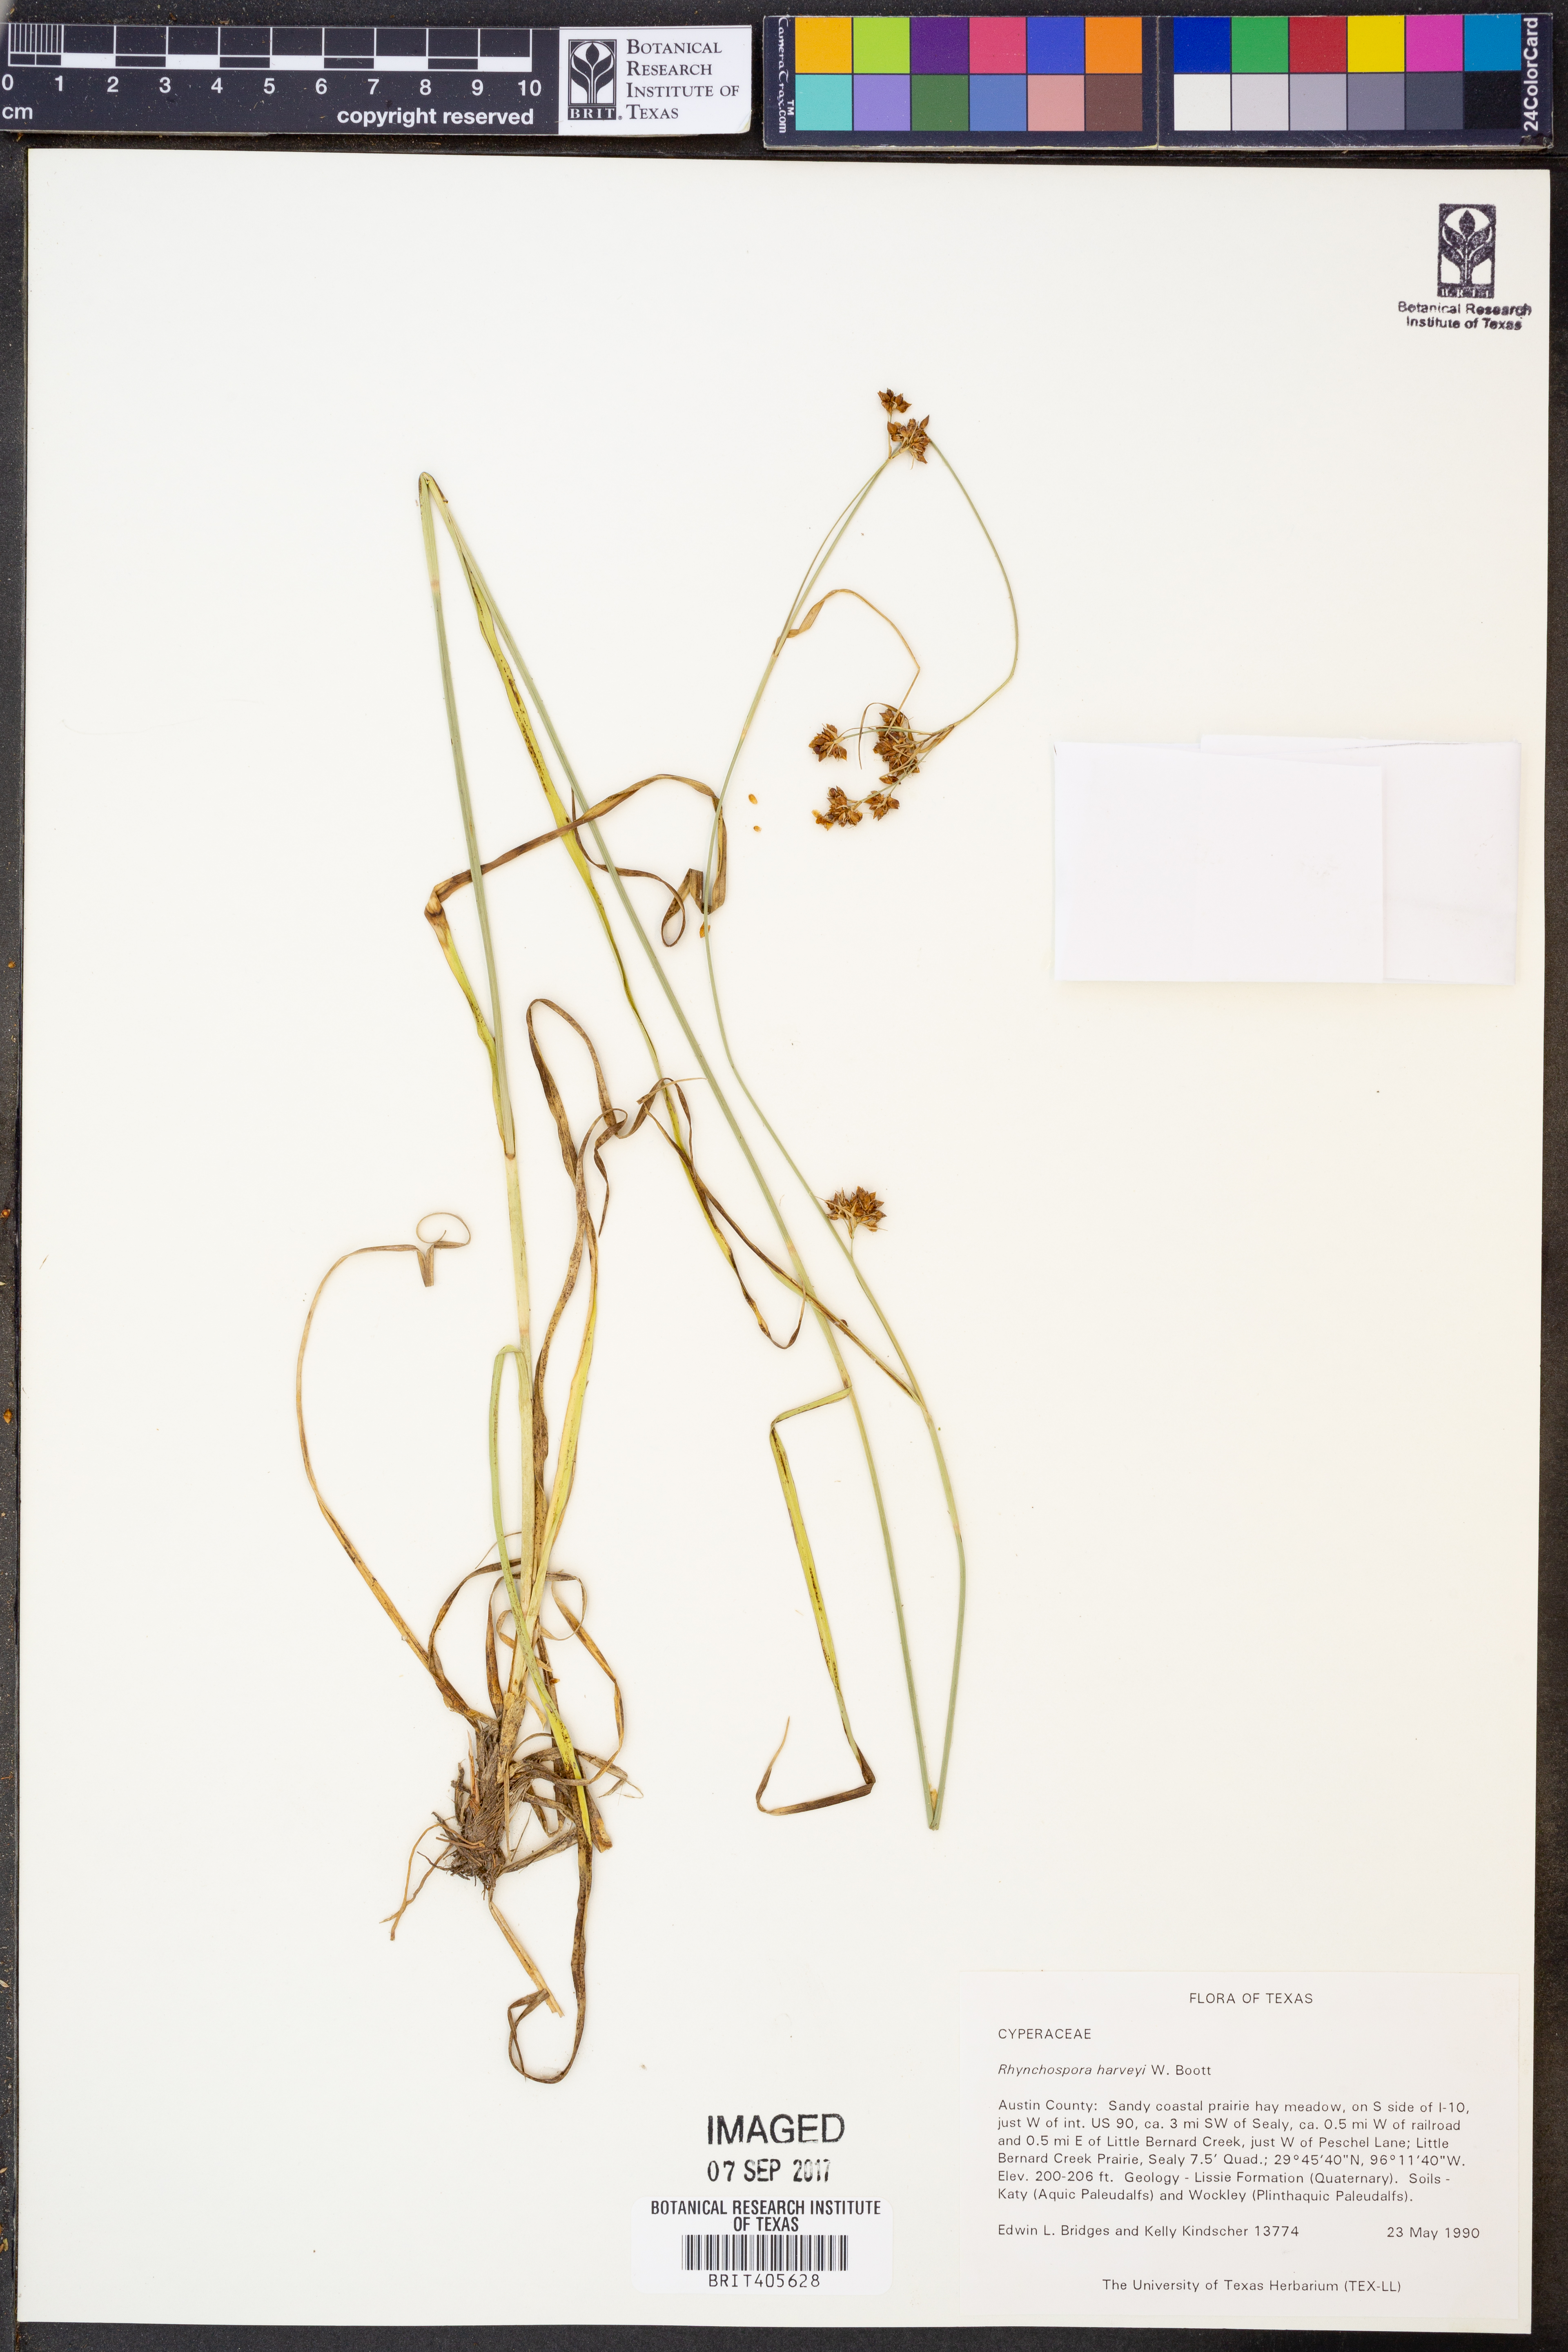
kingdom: Plantae
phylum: Tracheophyta
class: Liliopsida
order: Poales
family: Cyperaceae
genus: Rhynchospora
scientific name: Rhynchospora harveyi
